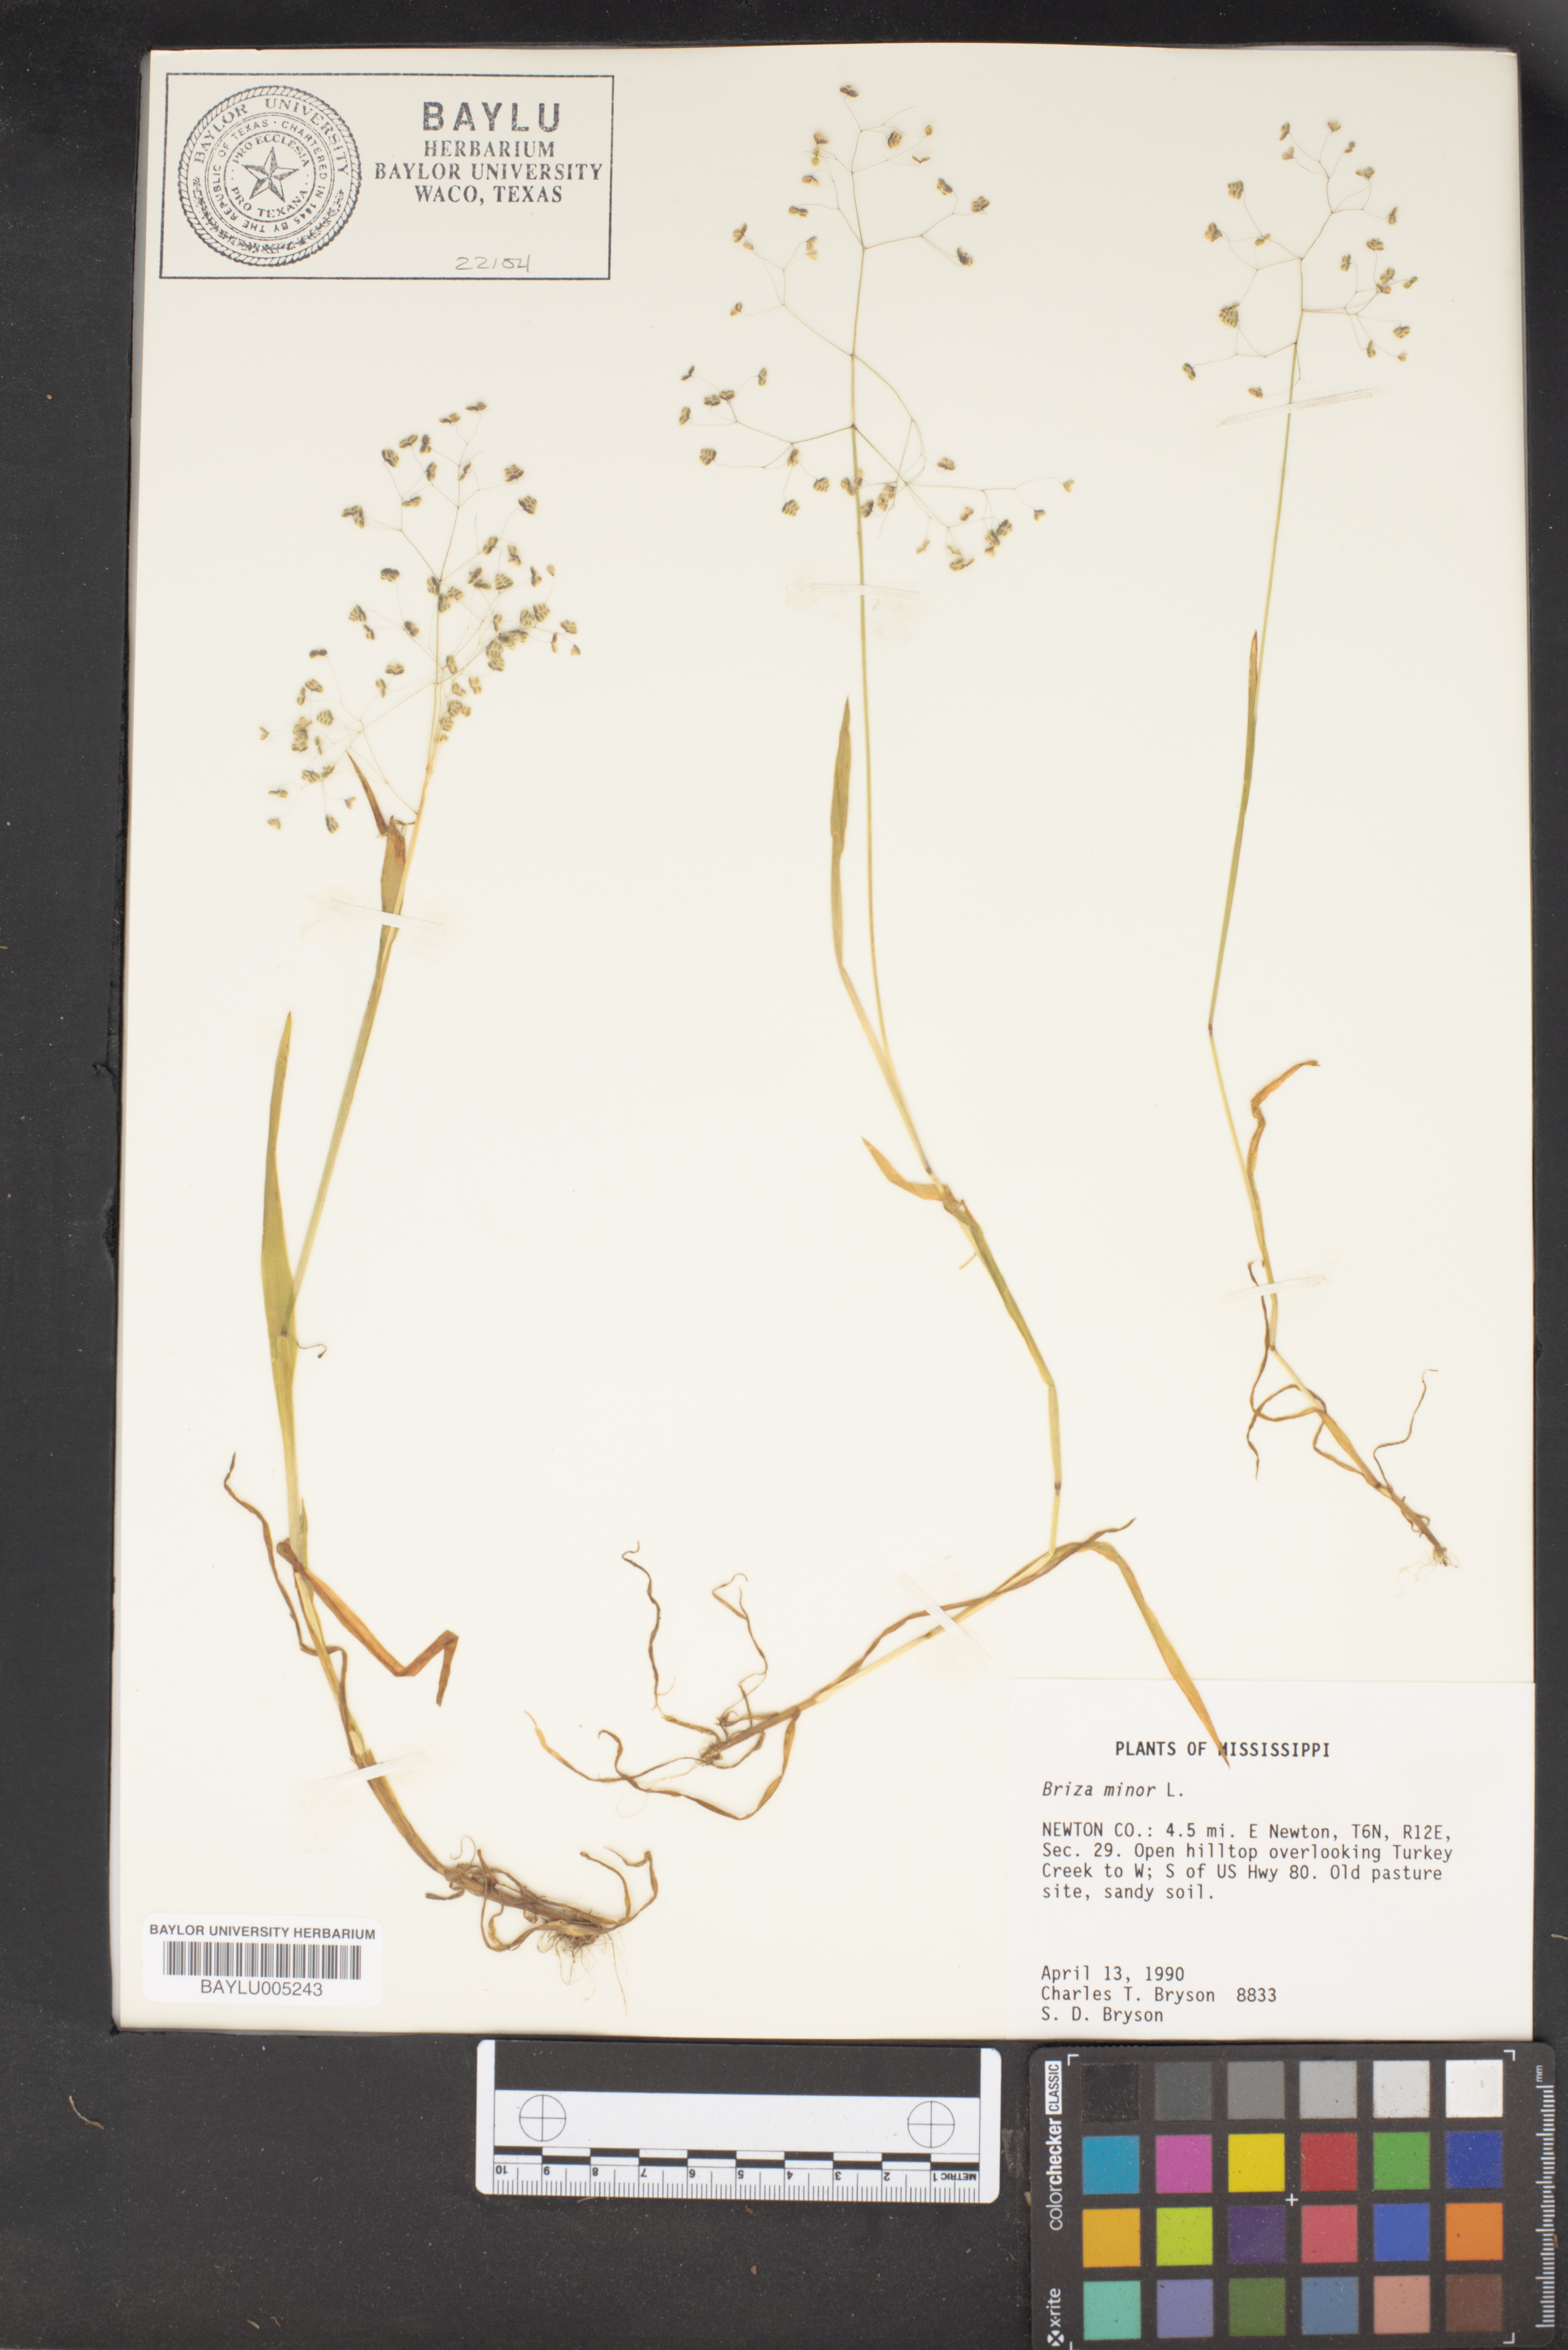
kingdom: Plantae
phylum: Tracheophyta
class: Liliopsida
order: Poales
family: Poaceae
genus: Briza
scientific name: Briza minor
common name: Lesser quaking-grass
